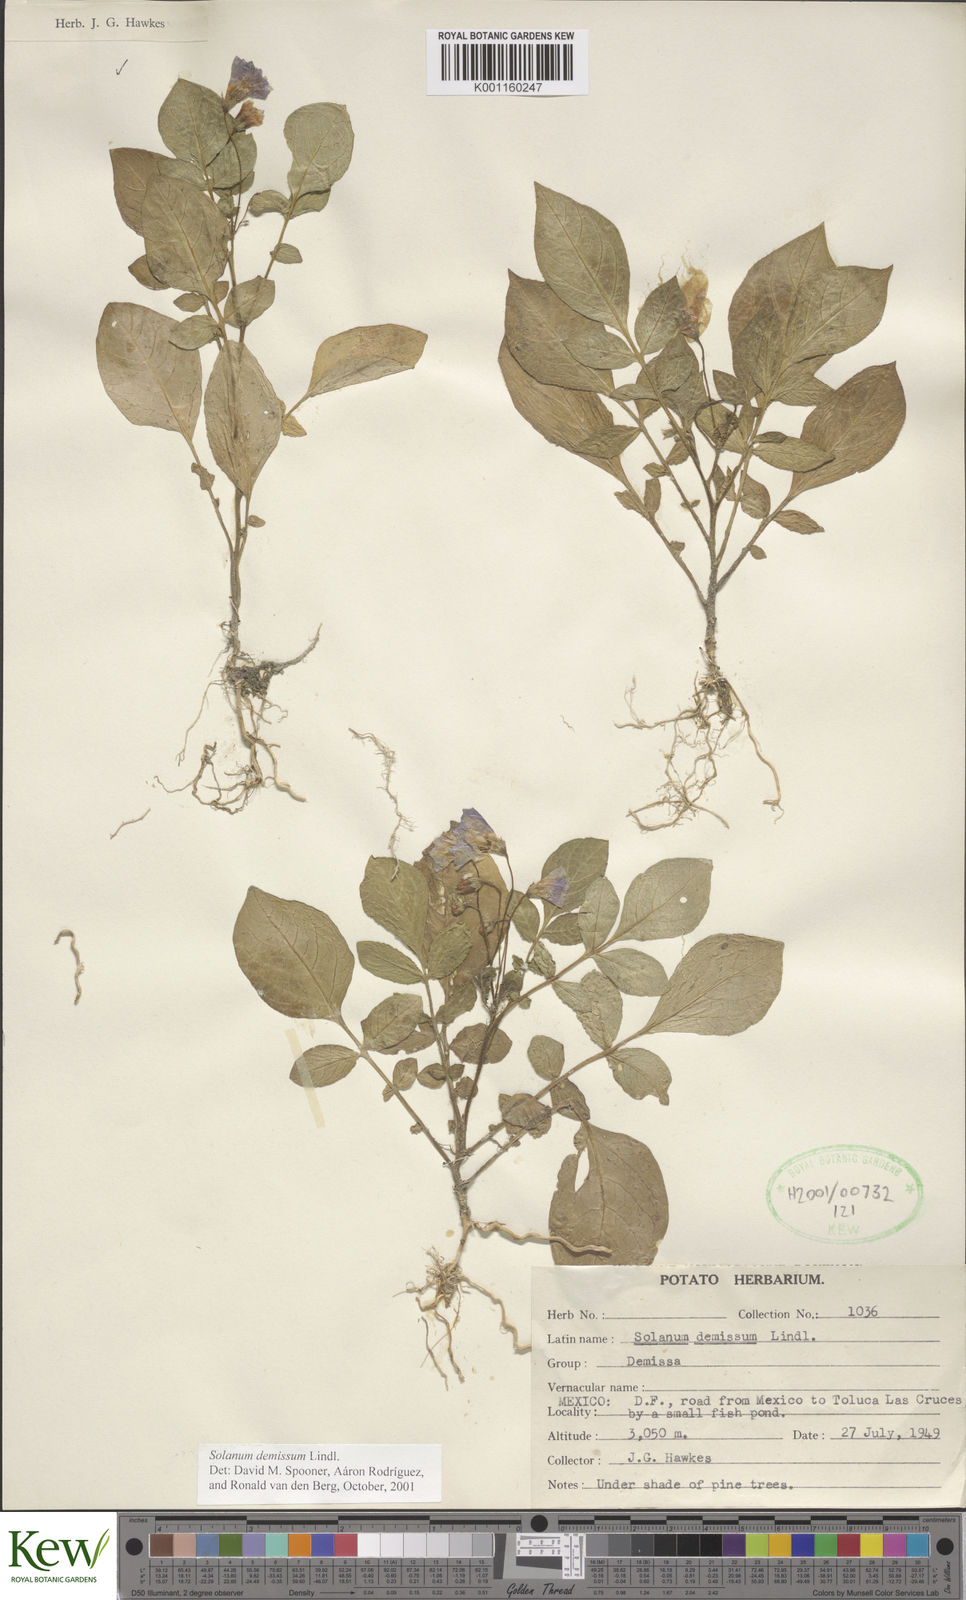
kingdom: Plantae
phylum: Tracheophyta
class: Magnoliopsida
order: Solanales
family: Solanaceae
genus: Solanum
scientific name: Solanum demissum
